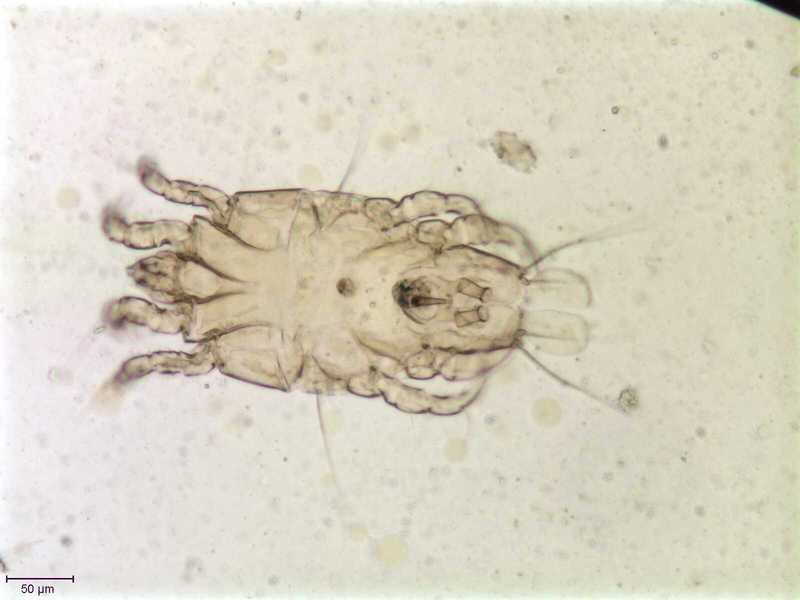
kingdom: Animalia
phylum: Arthropoda
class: Arachnida
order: Sarcoptiformes
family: Proctophyllodidae
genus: Proctophyllodes
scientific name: Proctophyllodes troncatus
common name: Mite
